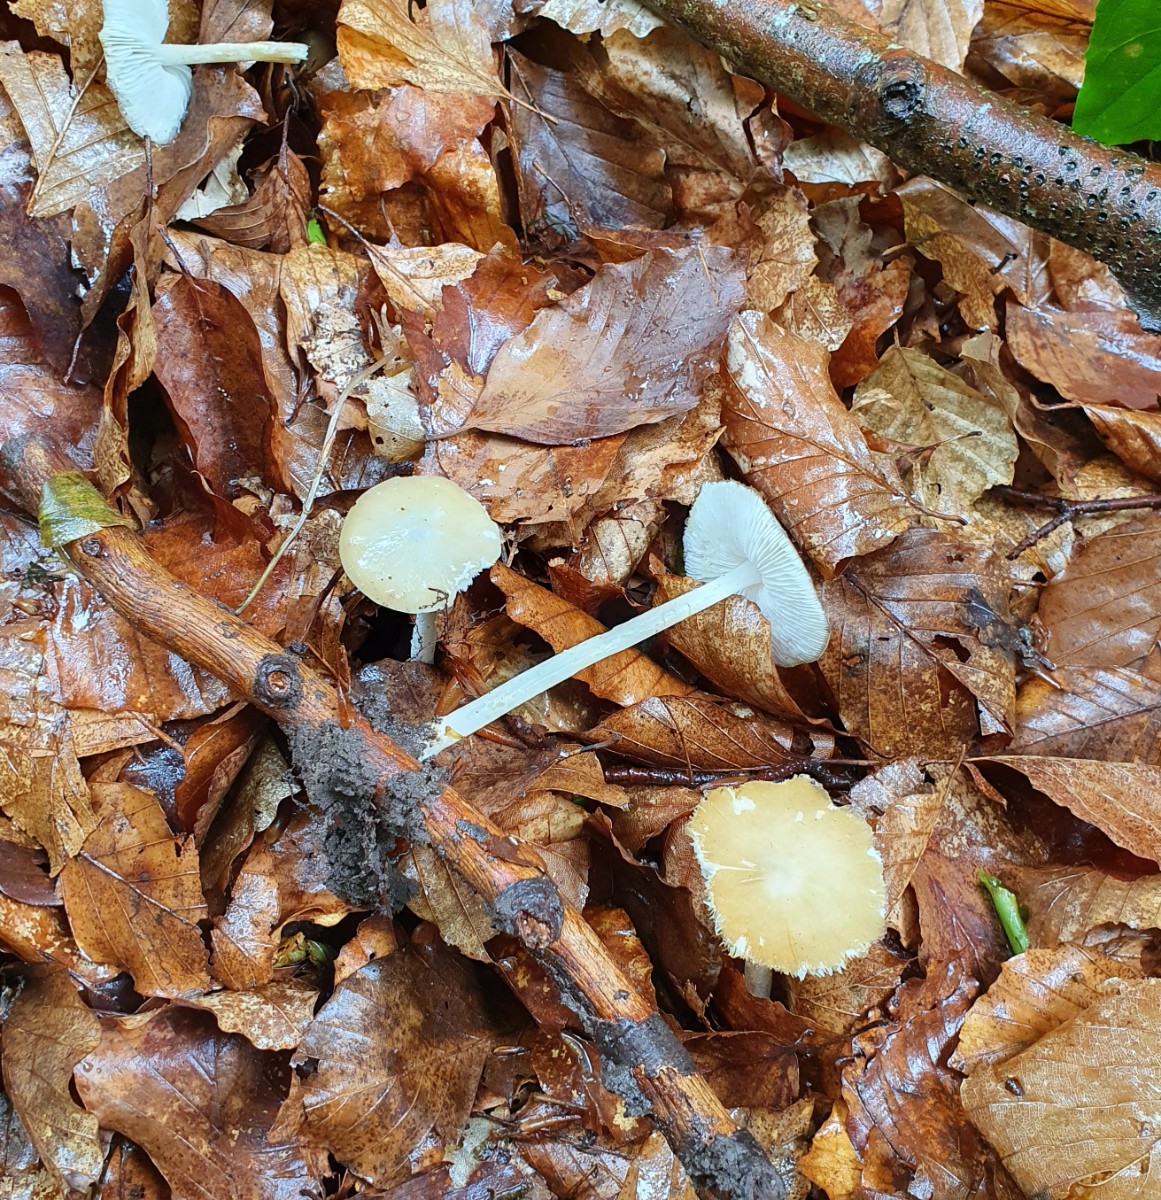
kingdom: Fungi
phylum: Basidiomycota
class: Agaricomycetes
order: Agaricales
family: Porotheleaceae
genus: Hydropodia
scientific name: Hydropodia subalpina
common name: vår-fnugfod
